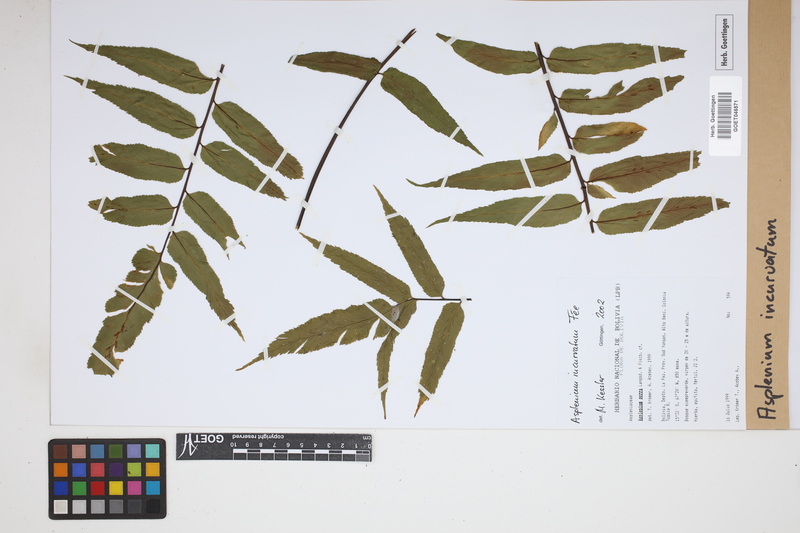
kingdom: Plantae
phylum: Tracheophyta
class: Polypodiopsida
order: Polypodiales
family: Aspleniaceae
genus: Asplenium
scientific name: Asplenium serra
